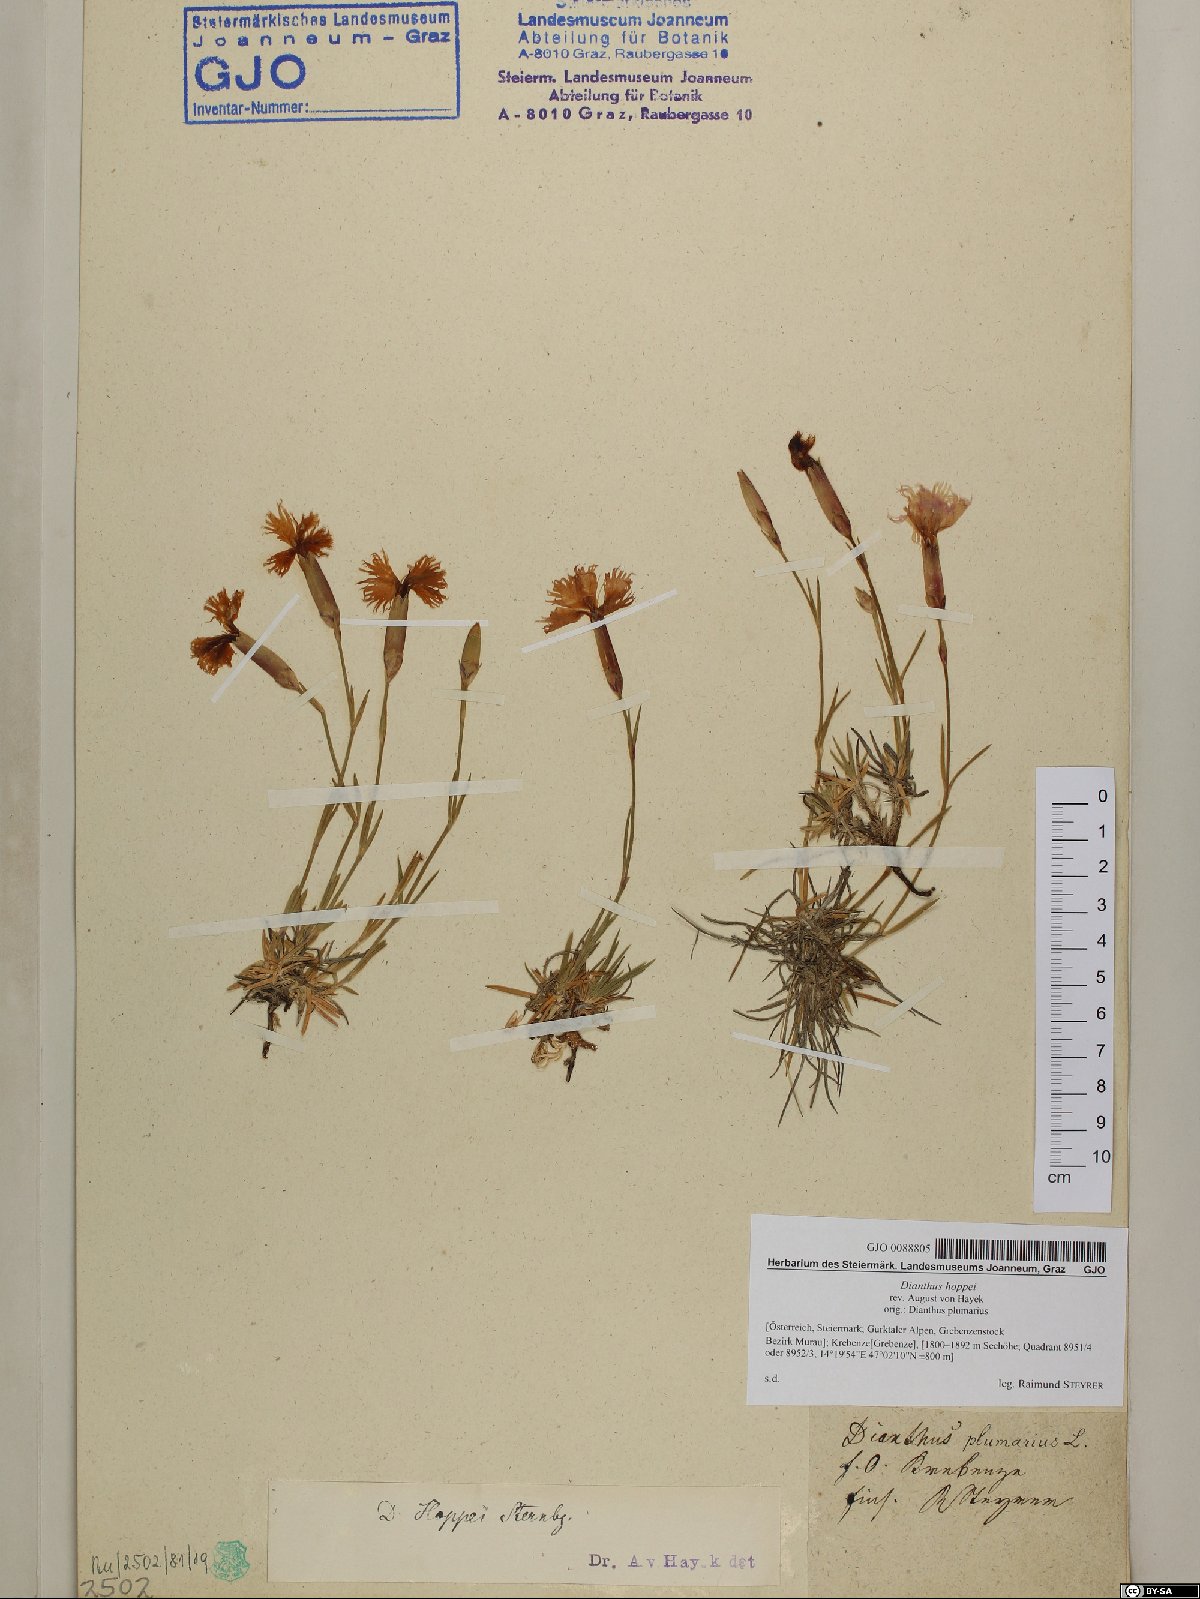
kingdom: Plantae
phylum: Tracheophyta
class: Magnoliopsida
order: Caryophyllales
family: Caryophyllaceae
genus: Dianthus
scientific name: Dianthus plumarius
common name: Pink
